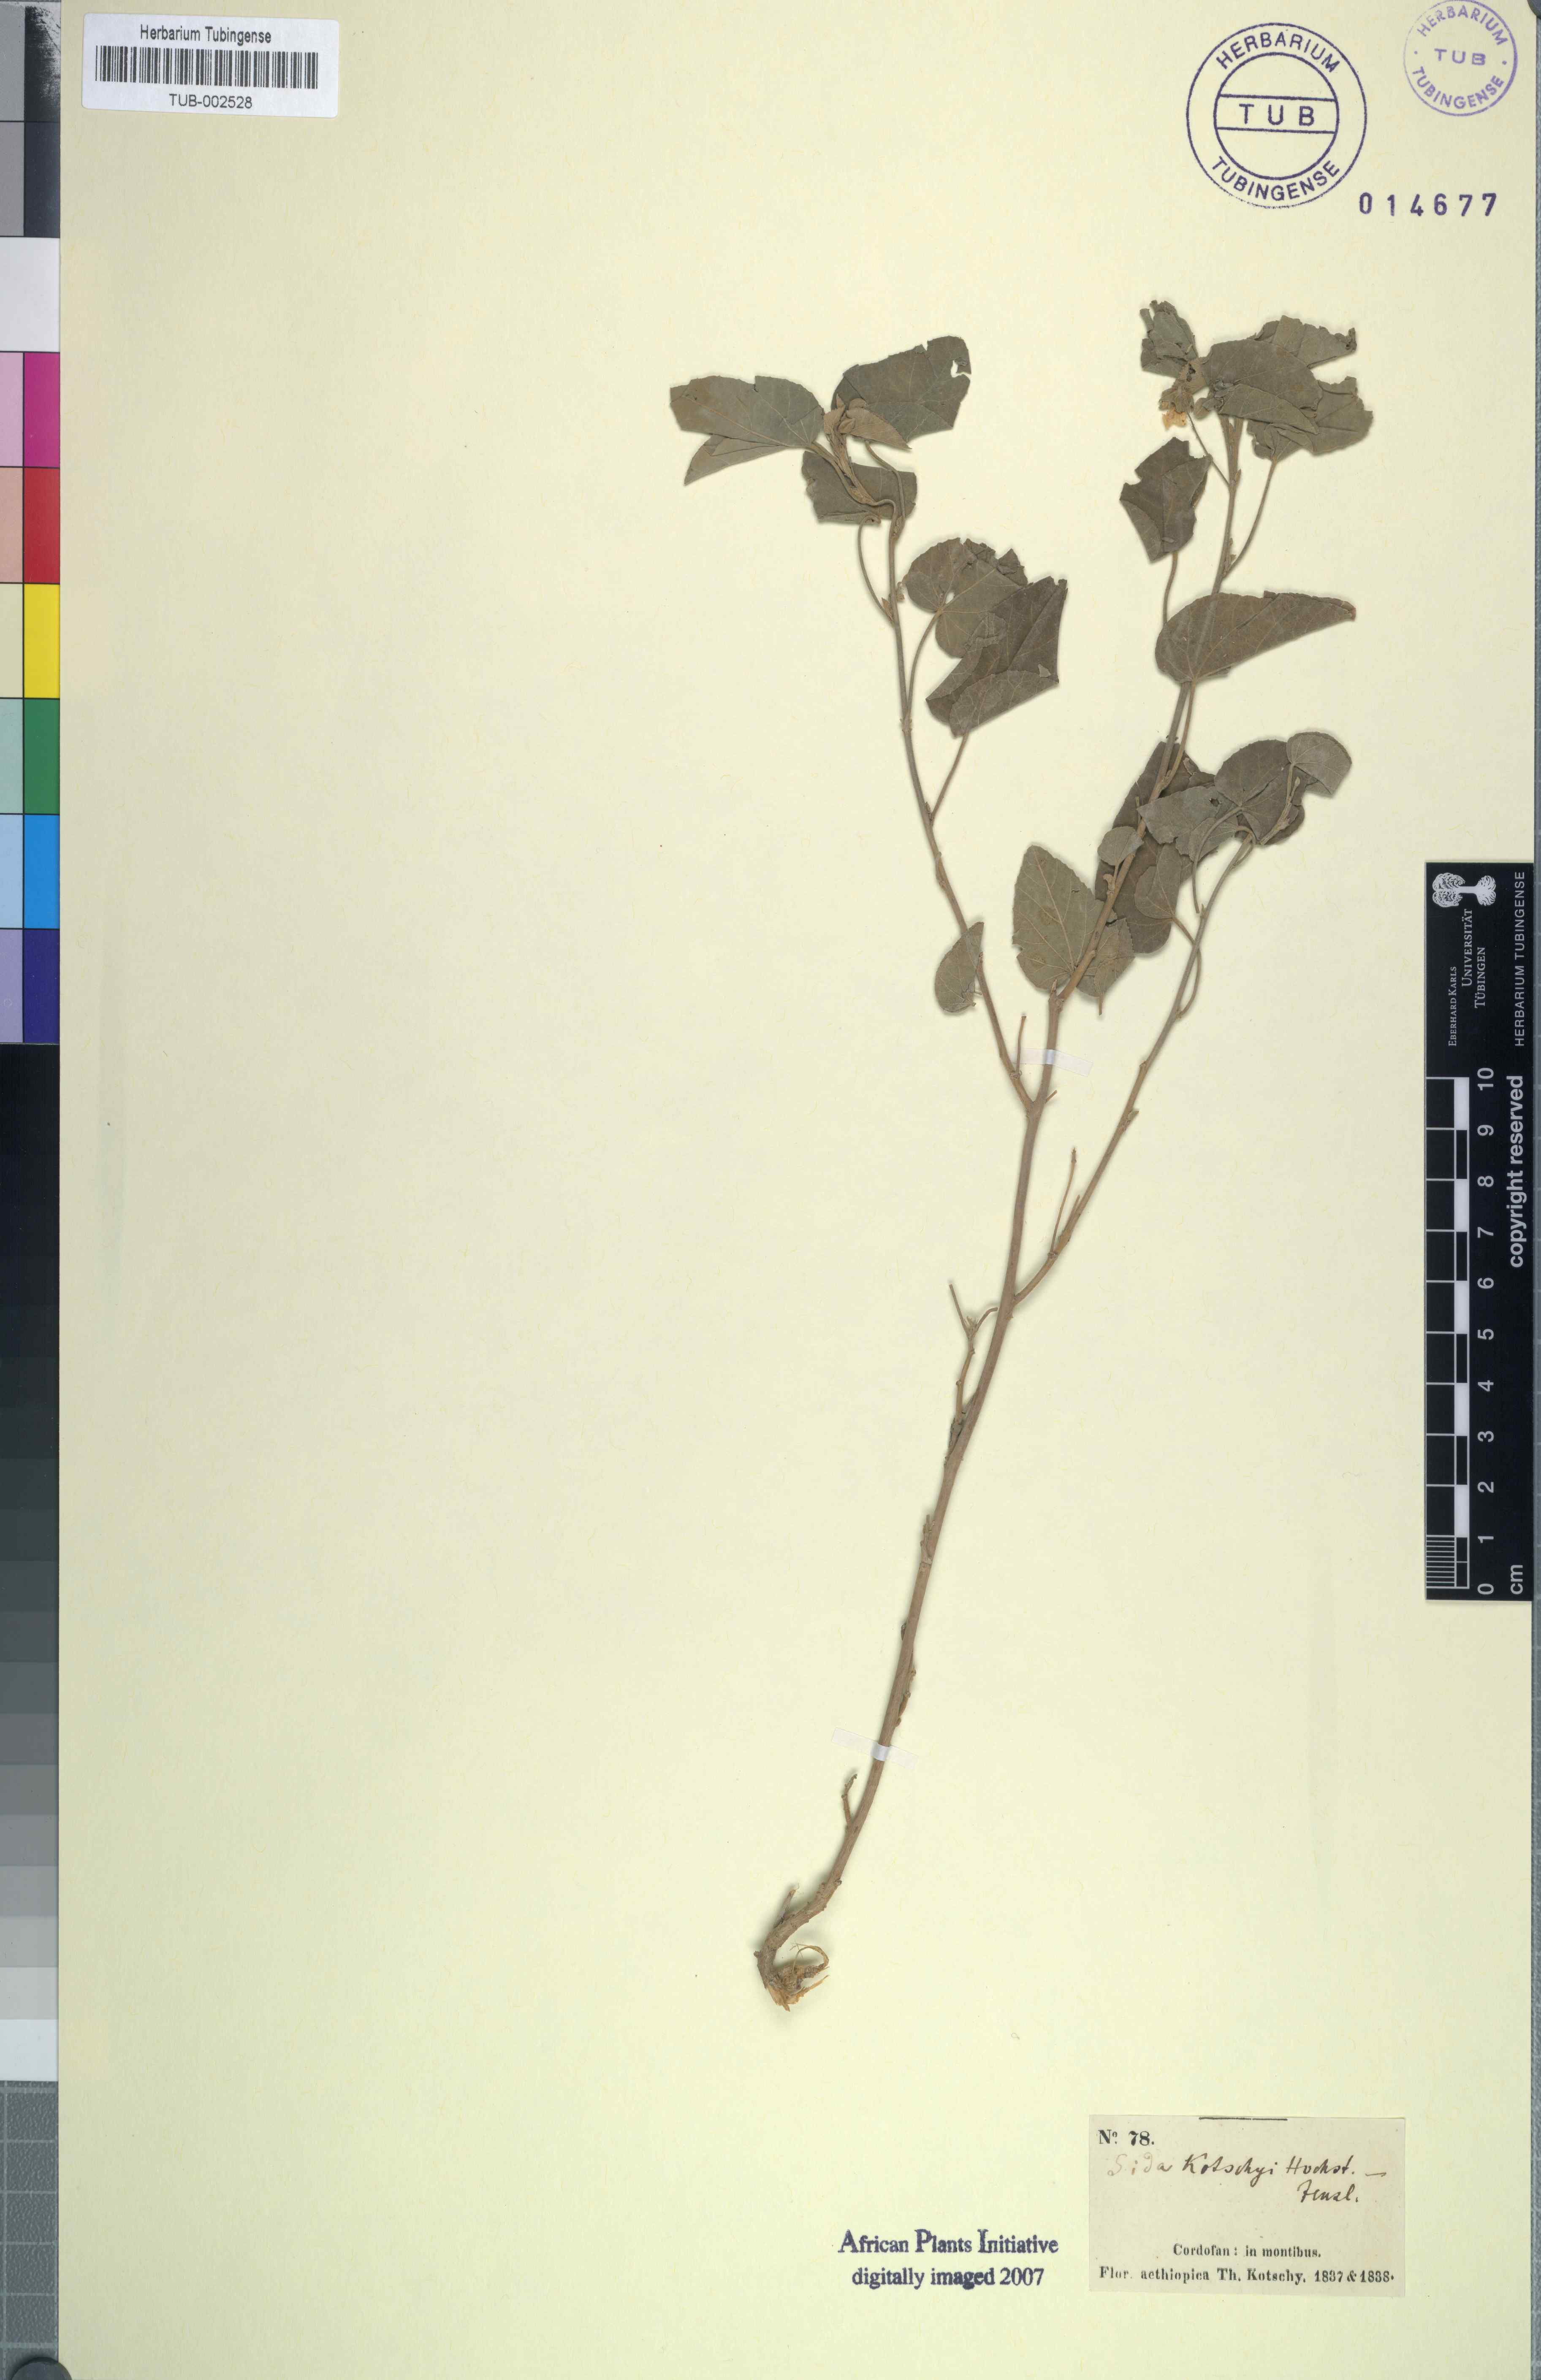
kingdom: Plantae
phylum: Tracheophyta
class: Magnoliopsida
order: Malvales
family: Malvaceae
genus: Abutilon
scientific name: Abutilon fruticosum
